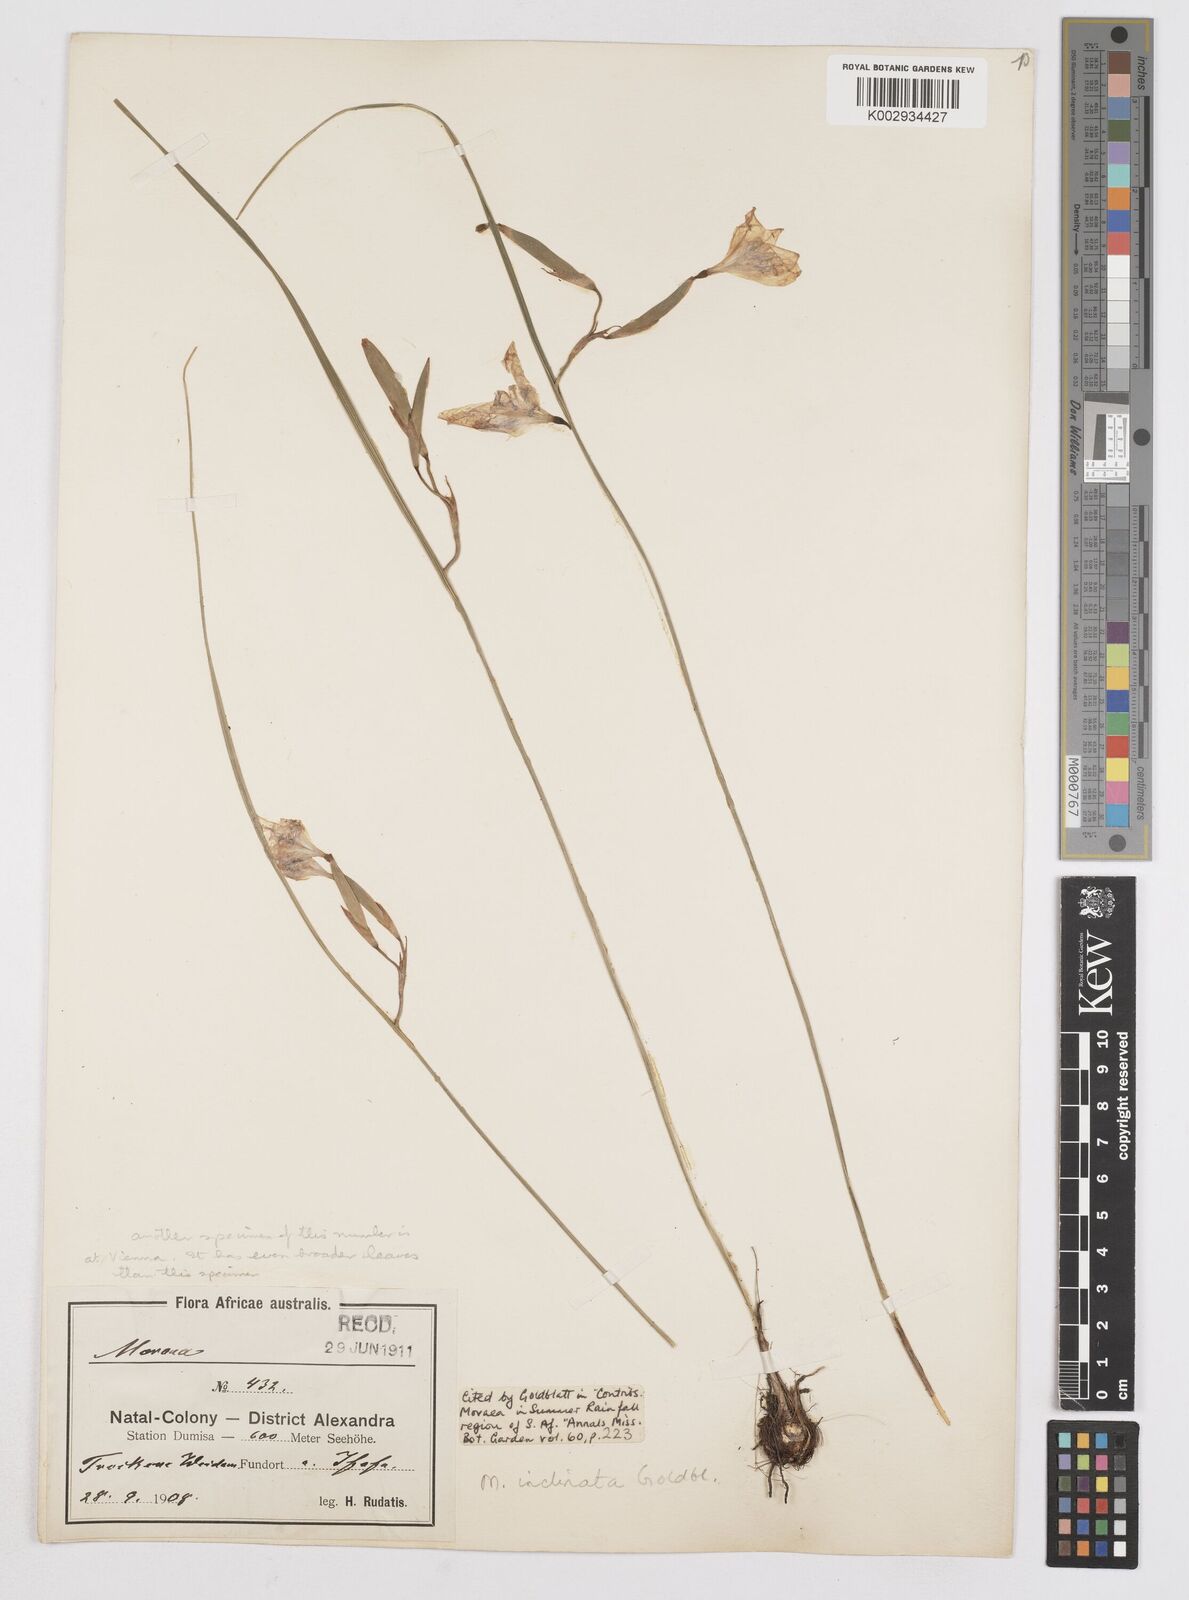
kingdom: Plantae
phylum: Tracheophyta
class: Liliopsida
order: Asparagales
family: Iridaceae
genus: Moraea
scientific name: Moraea inclinata
